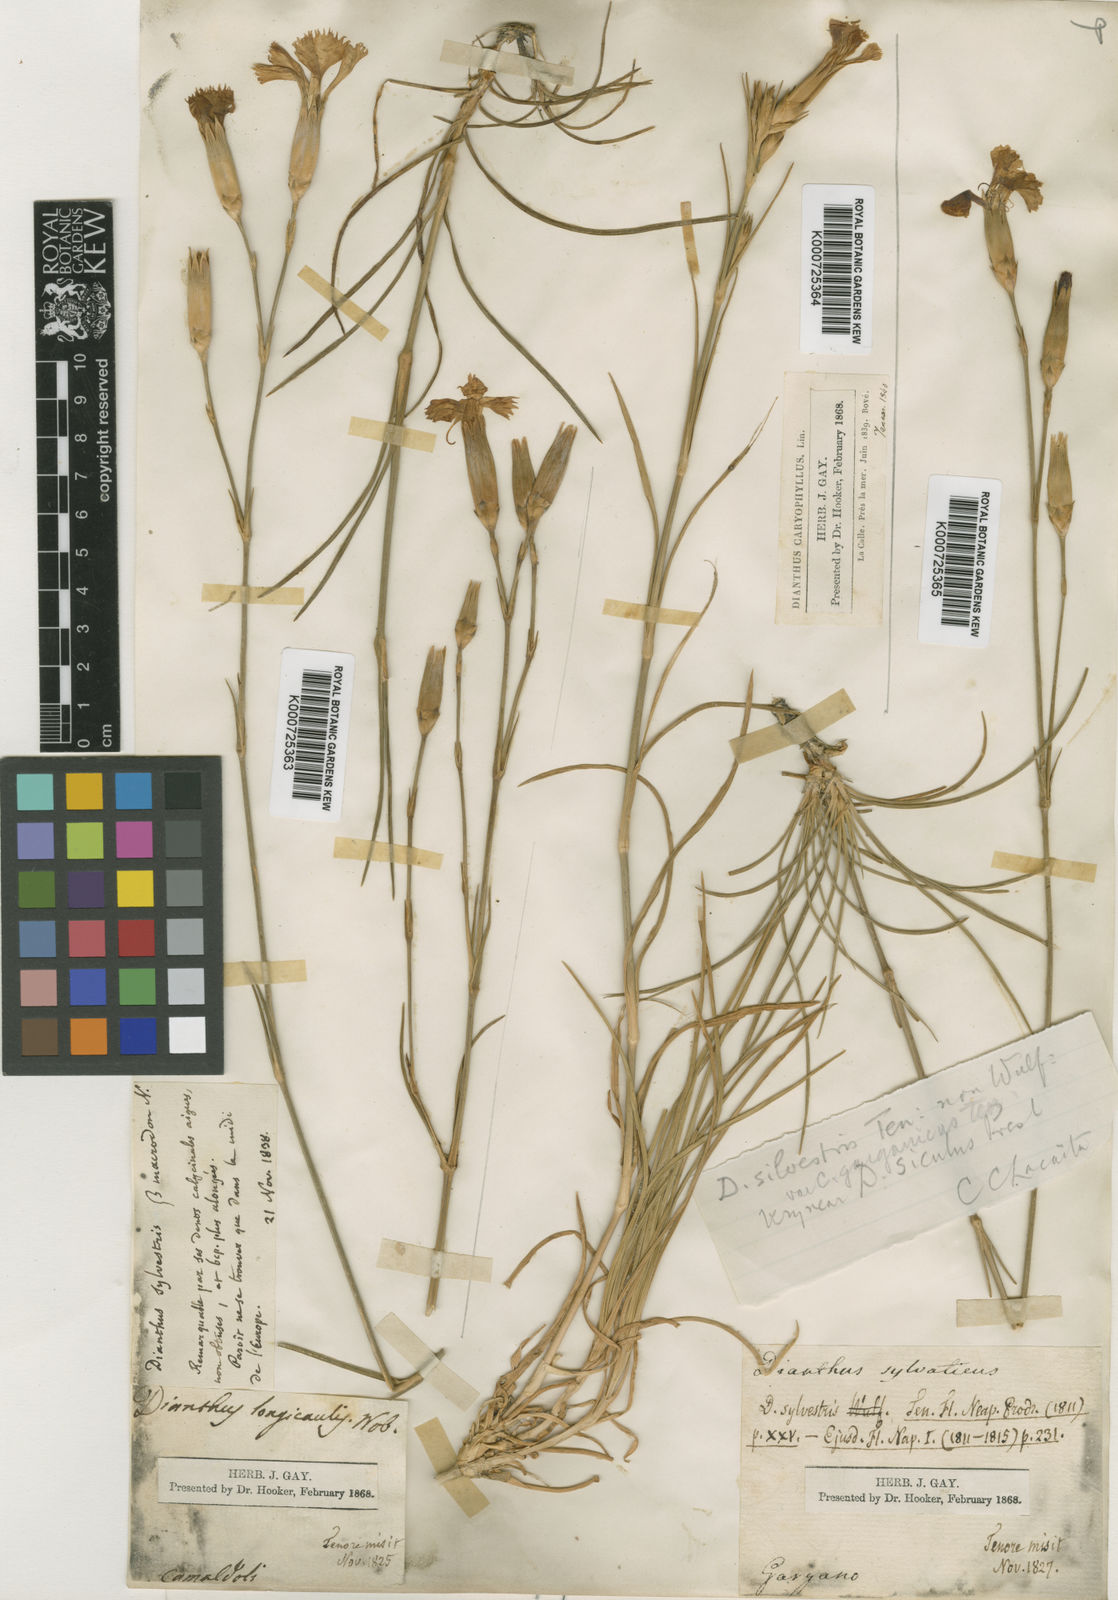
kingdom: Plantae
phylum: Tracheophyta
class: Magnoliopsida
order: Caryophyllales
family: Caryophyllaceae
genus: Dianthus
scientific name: Dianthus tarentinus
